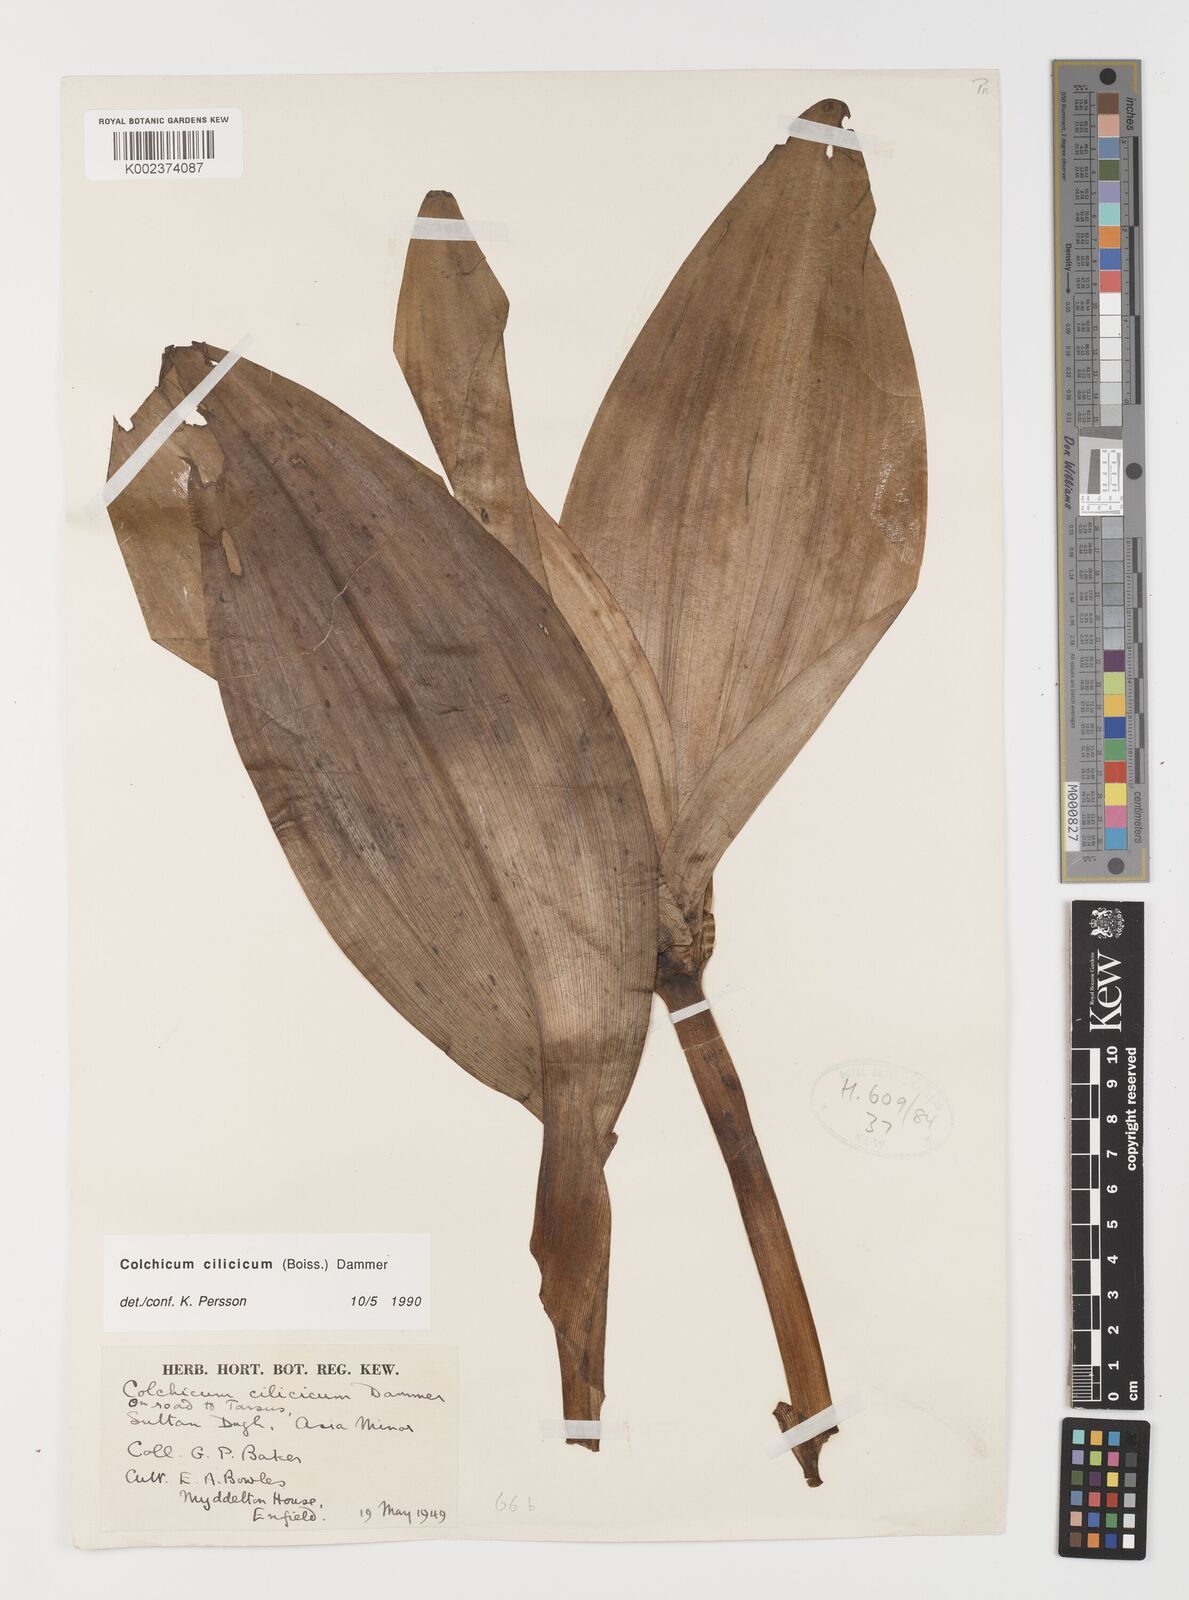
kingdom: Plantae
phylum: Tracheophyta
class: Liliopsida
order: Liliales
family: Colchicaceae
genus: Colchicum
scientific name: Colchicum cilicicum
